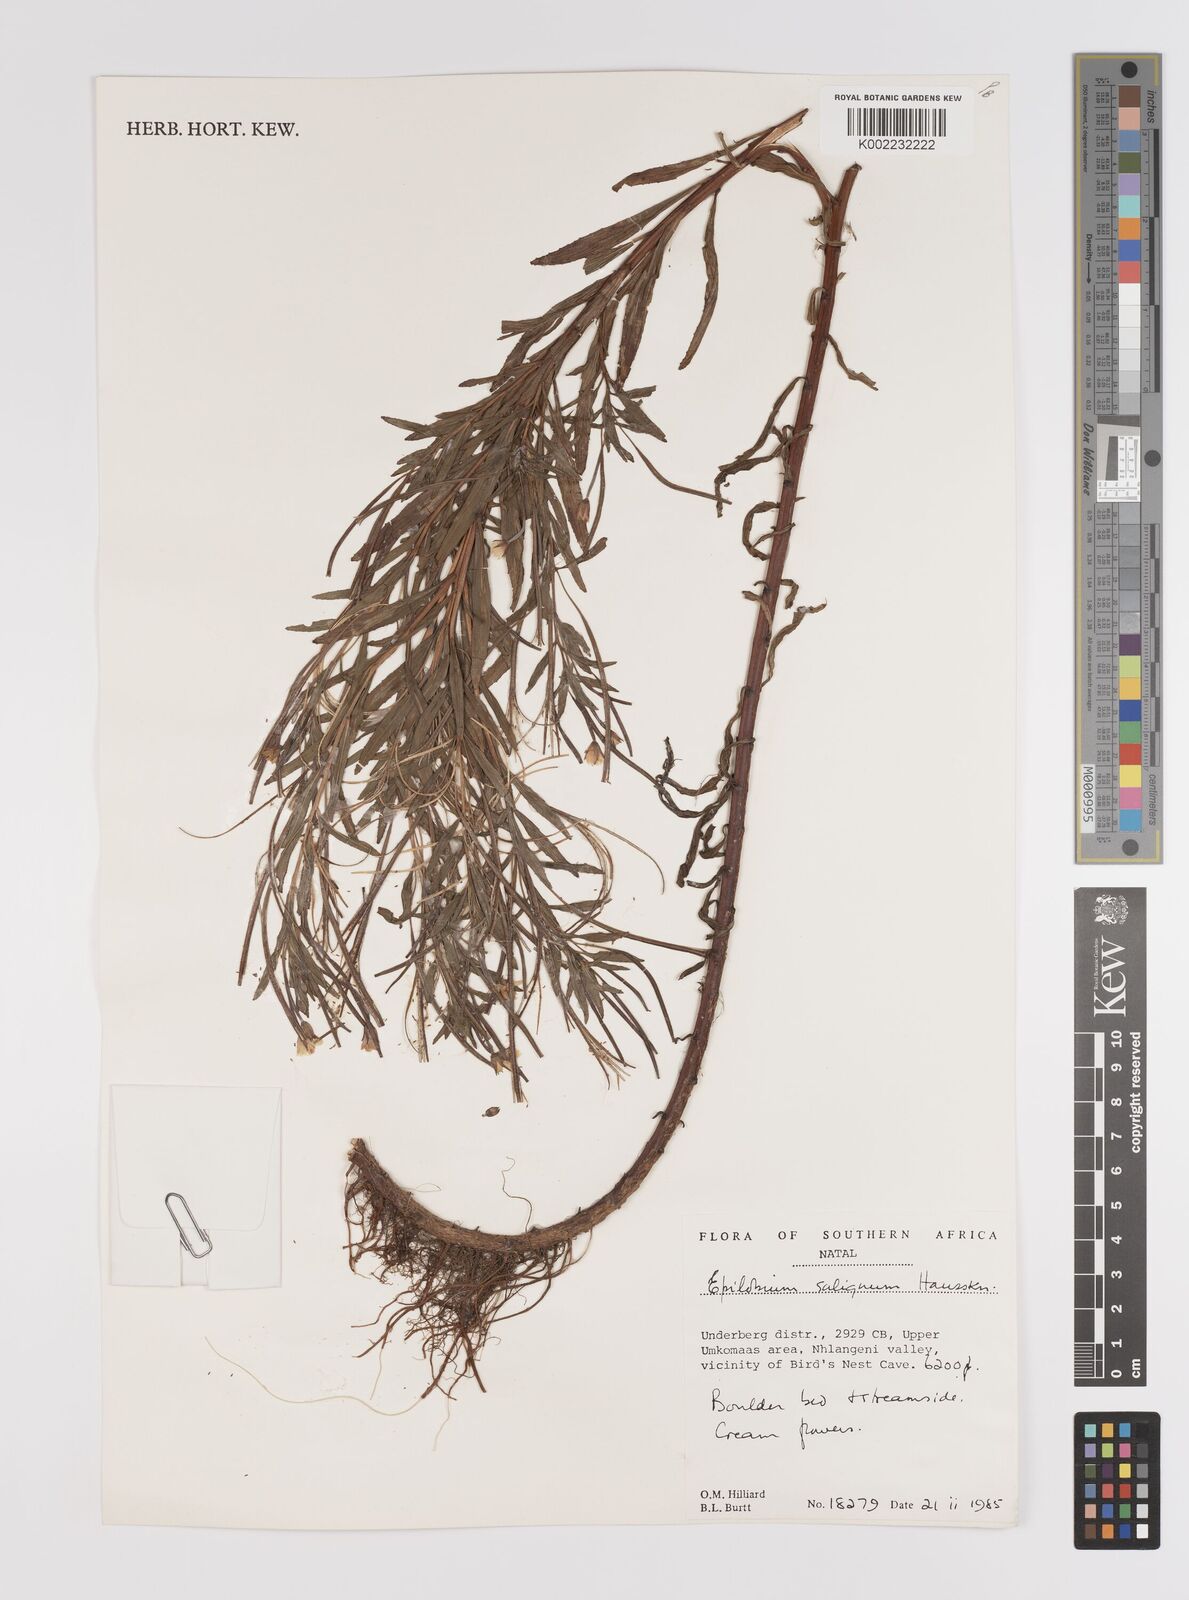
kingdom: Plantae
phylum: Tracheophyta
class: Magnoliopsida
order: Myrtales
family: Onagraceae
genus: Epilobium
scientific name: Epilobium salignum
